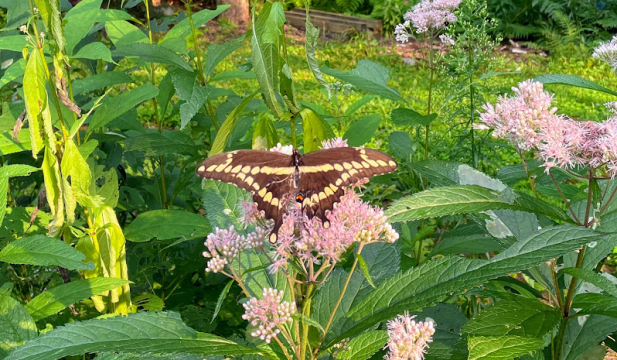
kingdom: Animalia
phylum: Arthropoda
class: Insecta
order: Lepidoptera
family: Papilionidae
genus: Papilio
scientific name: Papilio cresphontes
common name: Eastern Giant Swallowtail
